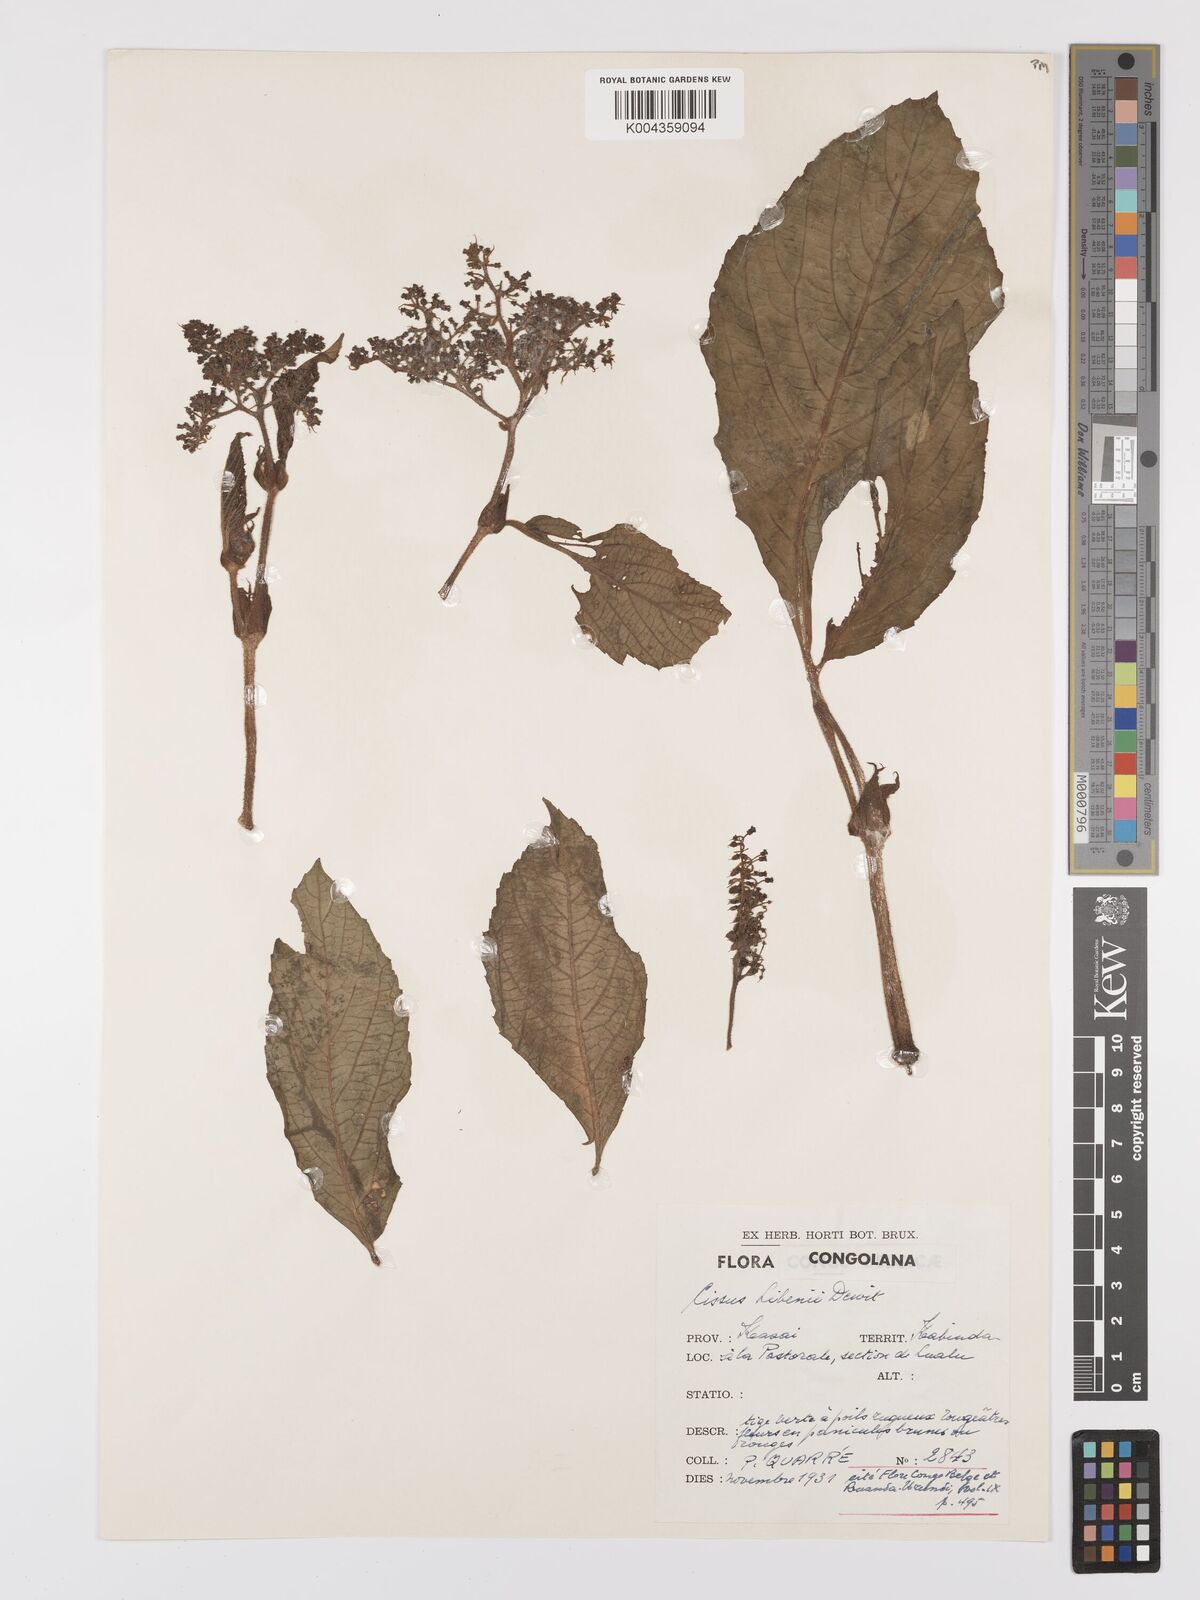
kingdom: Plantae
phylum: Tracheophyta
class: Magnoliopsida
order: Vitales
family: Vitaceae
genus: Cyphostemma
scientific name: Cyphostemma libenii
